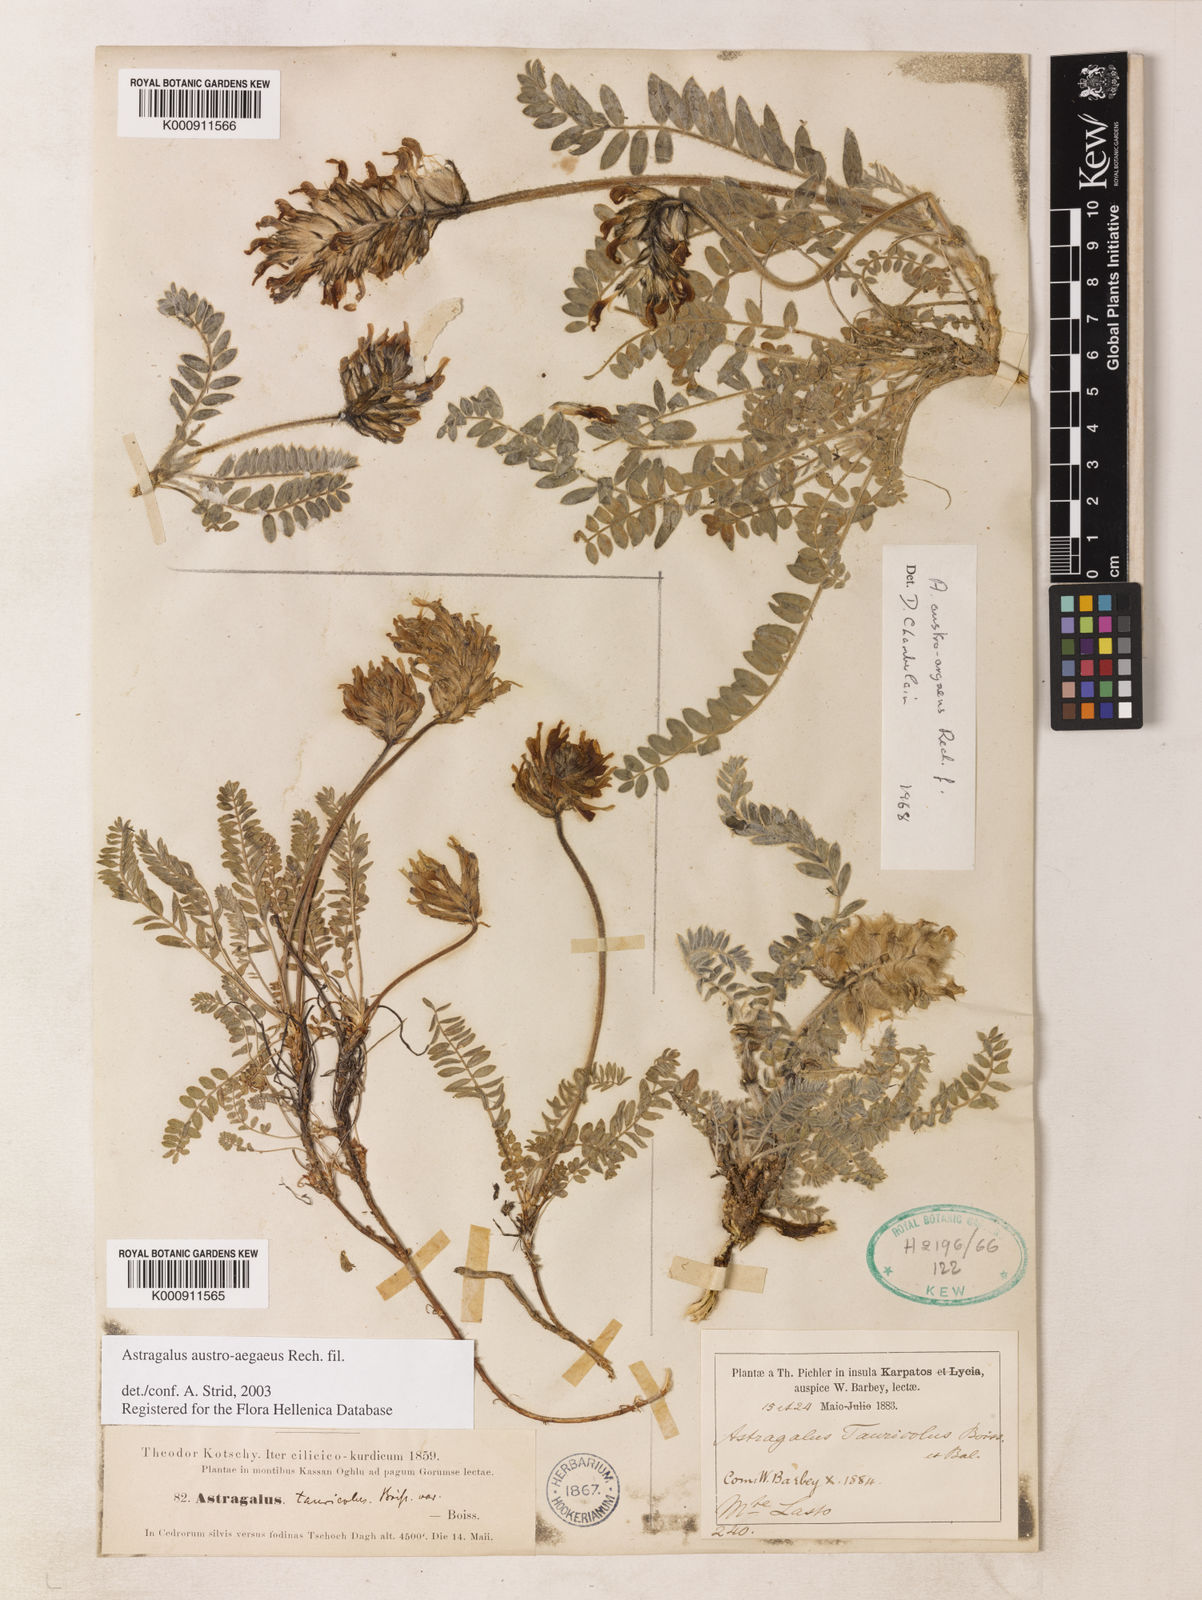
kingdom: Plantae
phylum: Tracheophyta
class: Magnoliopsida
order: Fabales
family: Fabaceae
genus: Astragalus
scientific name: Astragalus austroaegaeus
